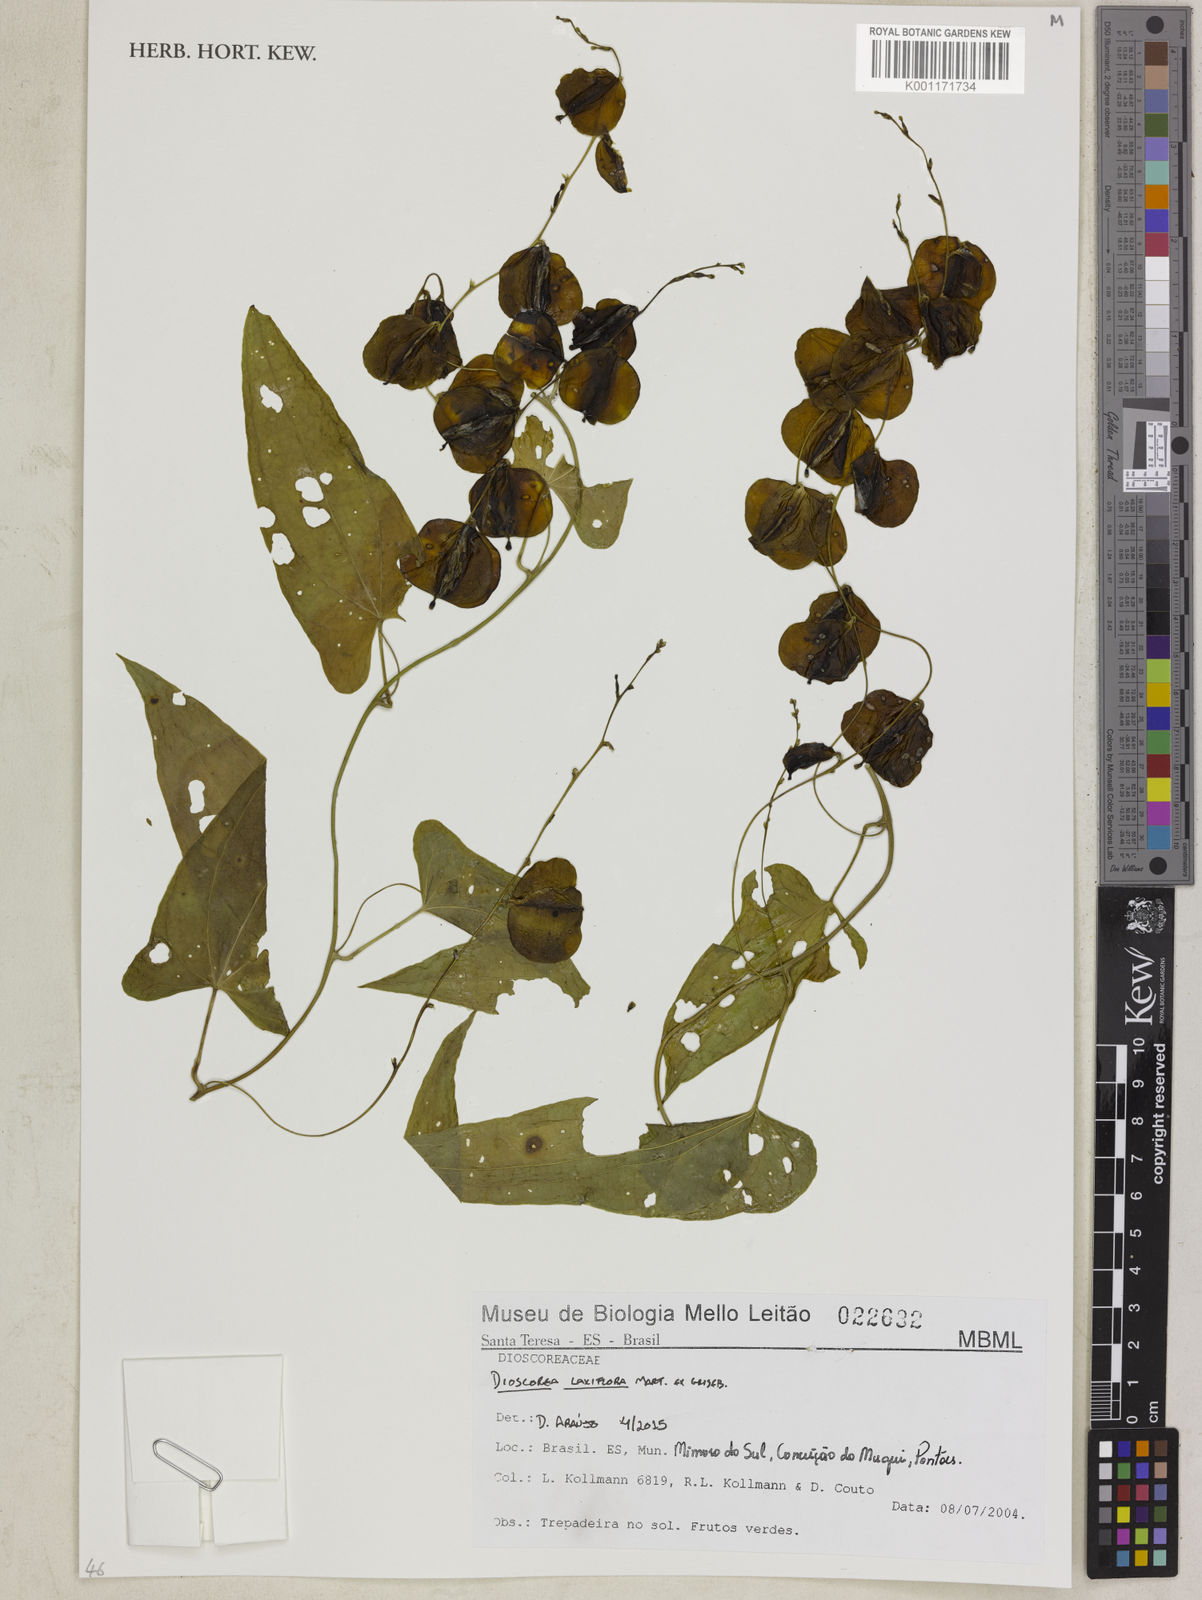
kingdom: Plantae
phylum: Tracheophyta
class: Liliopsida
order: Dioscoreales
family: Dioscoreaceae
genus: Dioscorea
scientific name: Dioscorea laxiflora
